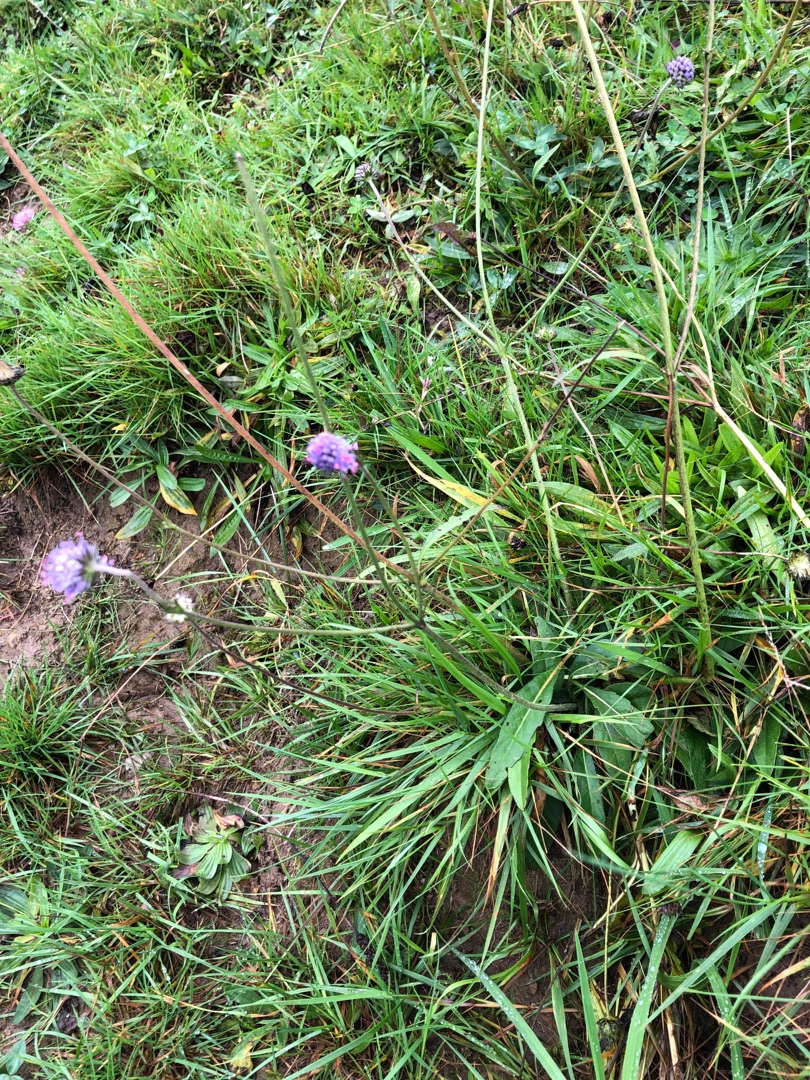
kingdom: Plantae
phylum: Tracheophyta
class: Magnoliopsida
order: Dipsacales
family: Caprifoliaceae
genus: Succisa
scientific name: Succisa pratensis
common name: Djævelsbid
